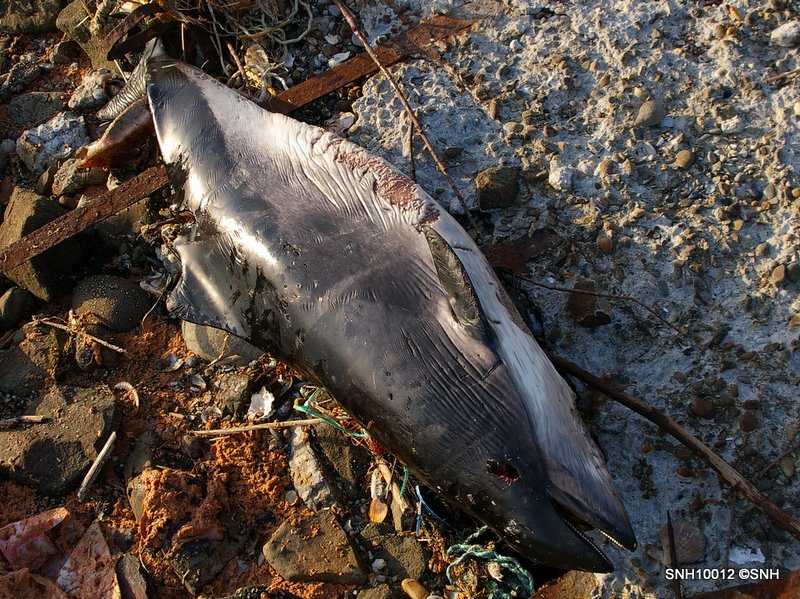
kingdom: Animalia
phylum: Chordata
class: Mammalia
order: Cetacea
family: Phocoenidae
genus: Phocoena
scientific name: Phocoena phocoena
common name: Harbour porpoise
